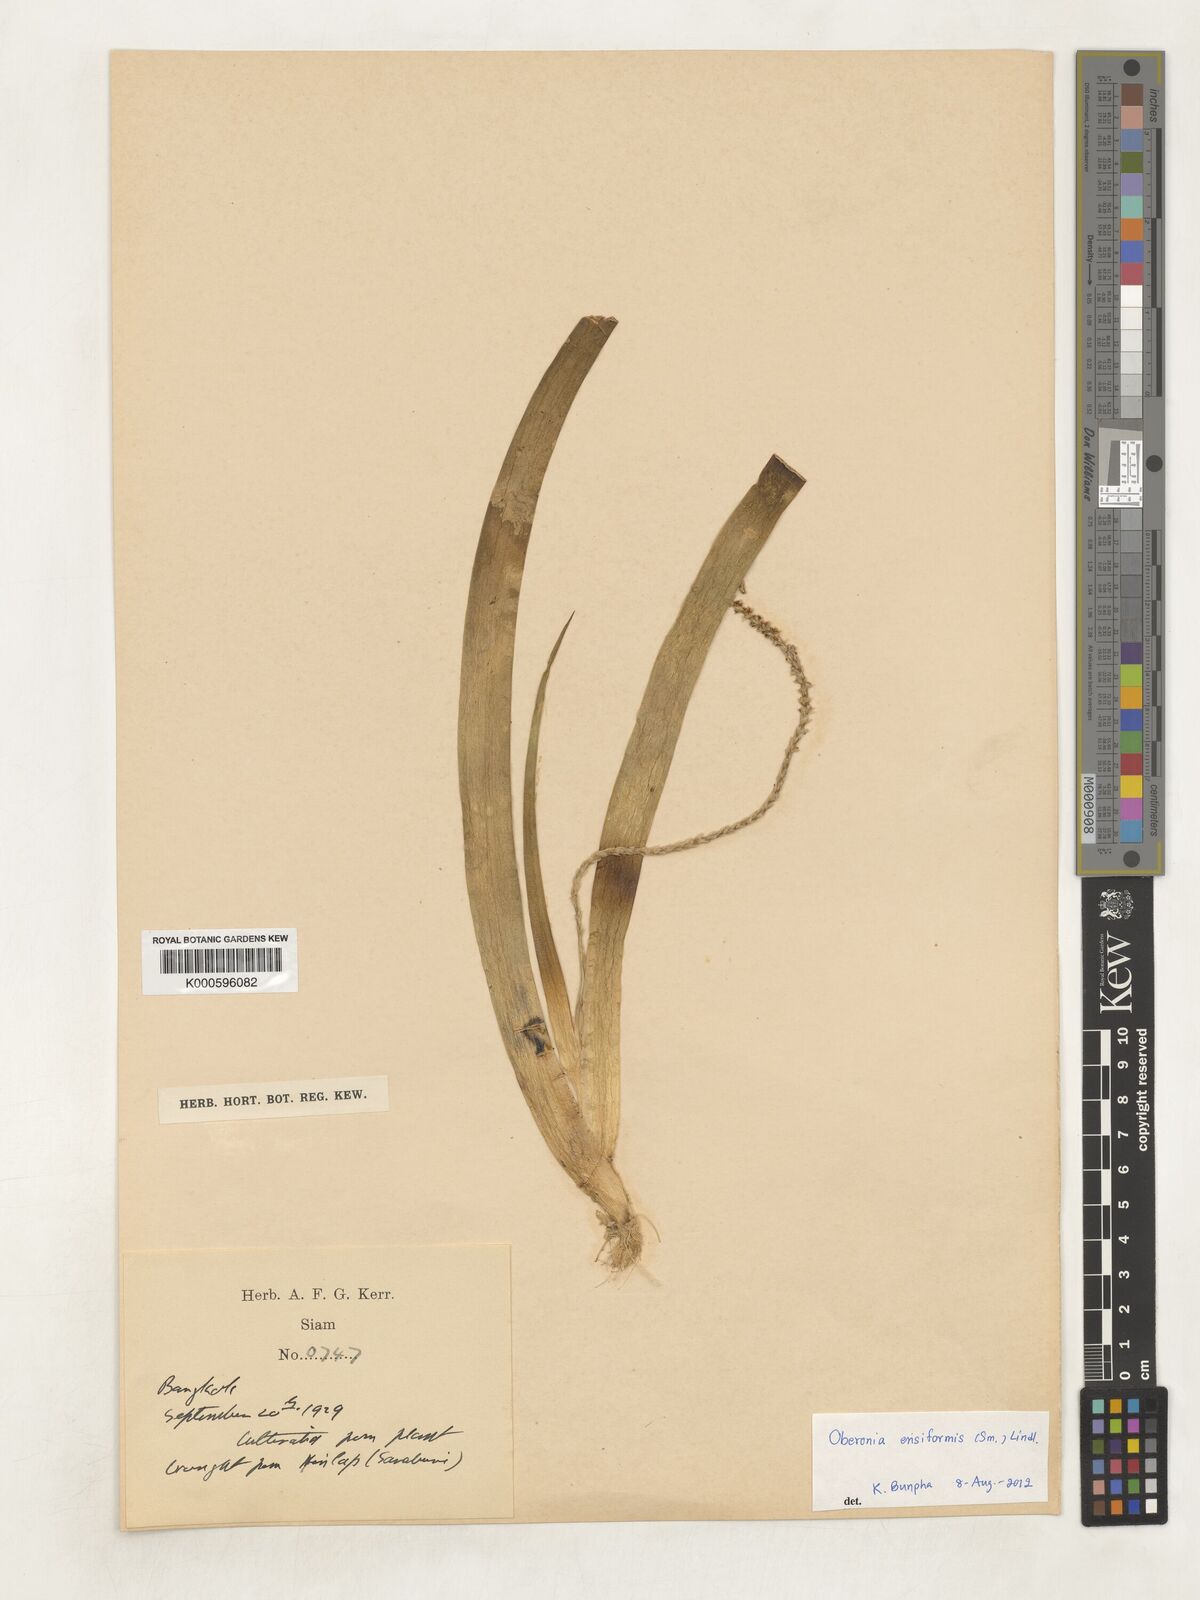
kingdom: Plantae
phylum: Tracheophyta
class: Liliopsida
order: Asparagales
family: Orchidaceae
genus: Oberonia
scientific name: Oberonia
